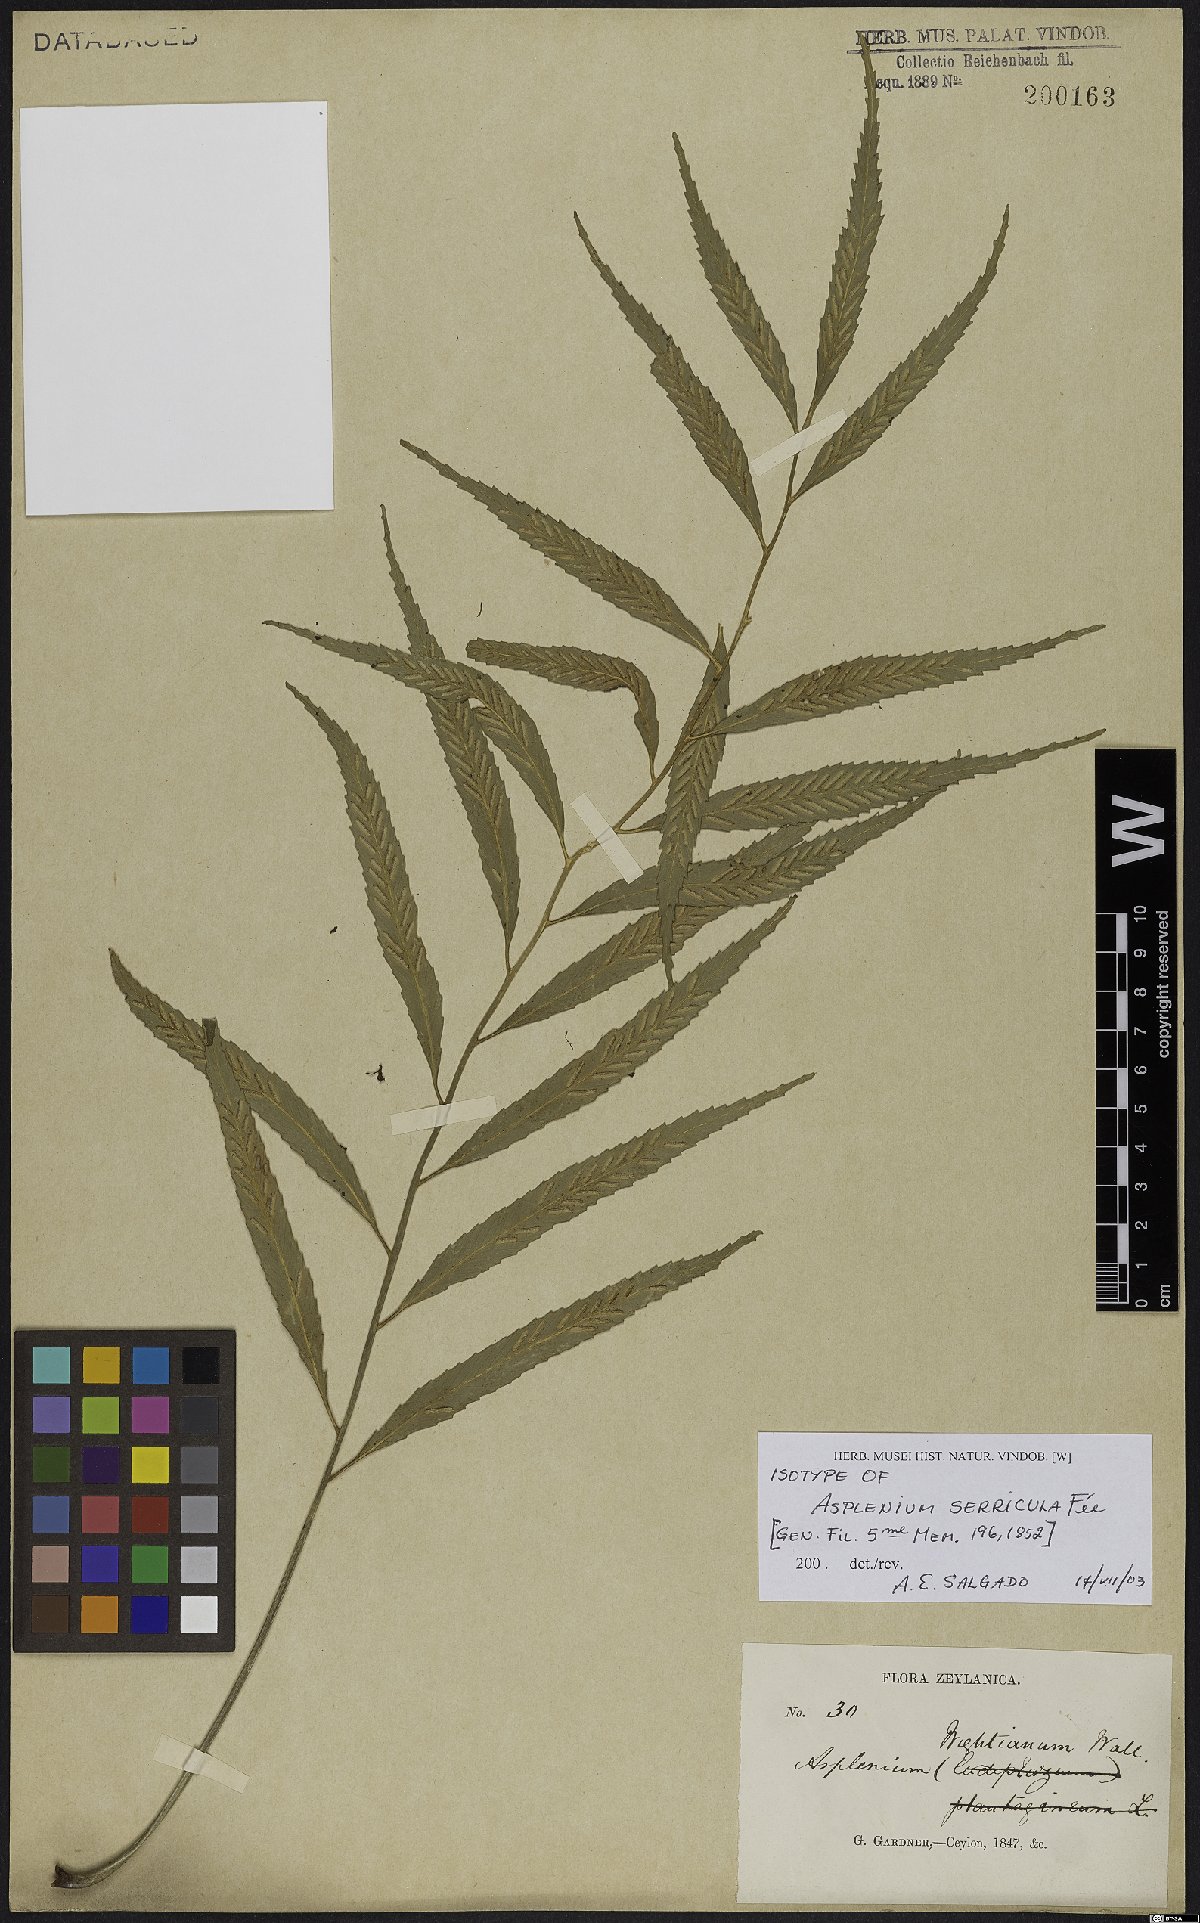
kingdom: Plantae
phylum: Tracheophyta
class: Polypodiopsida
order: Polypodiales
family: Aspleniaceae
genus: Asplenium
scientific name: Asplenium serricula
